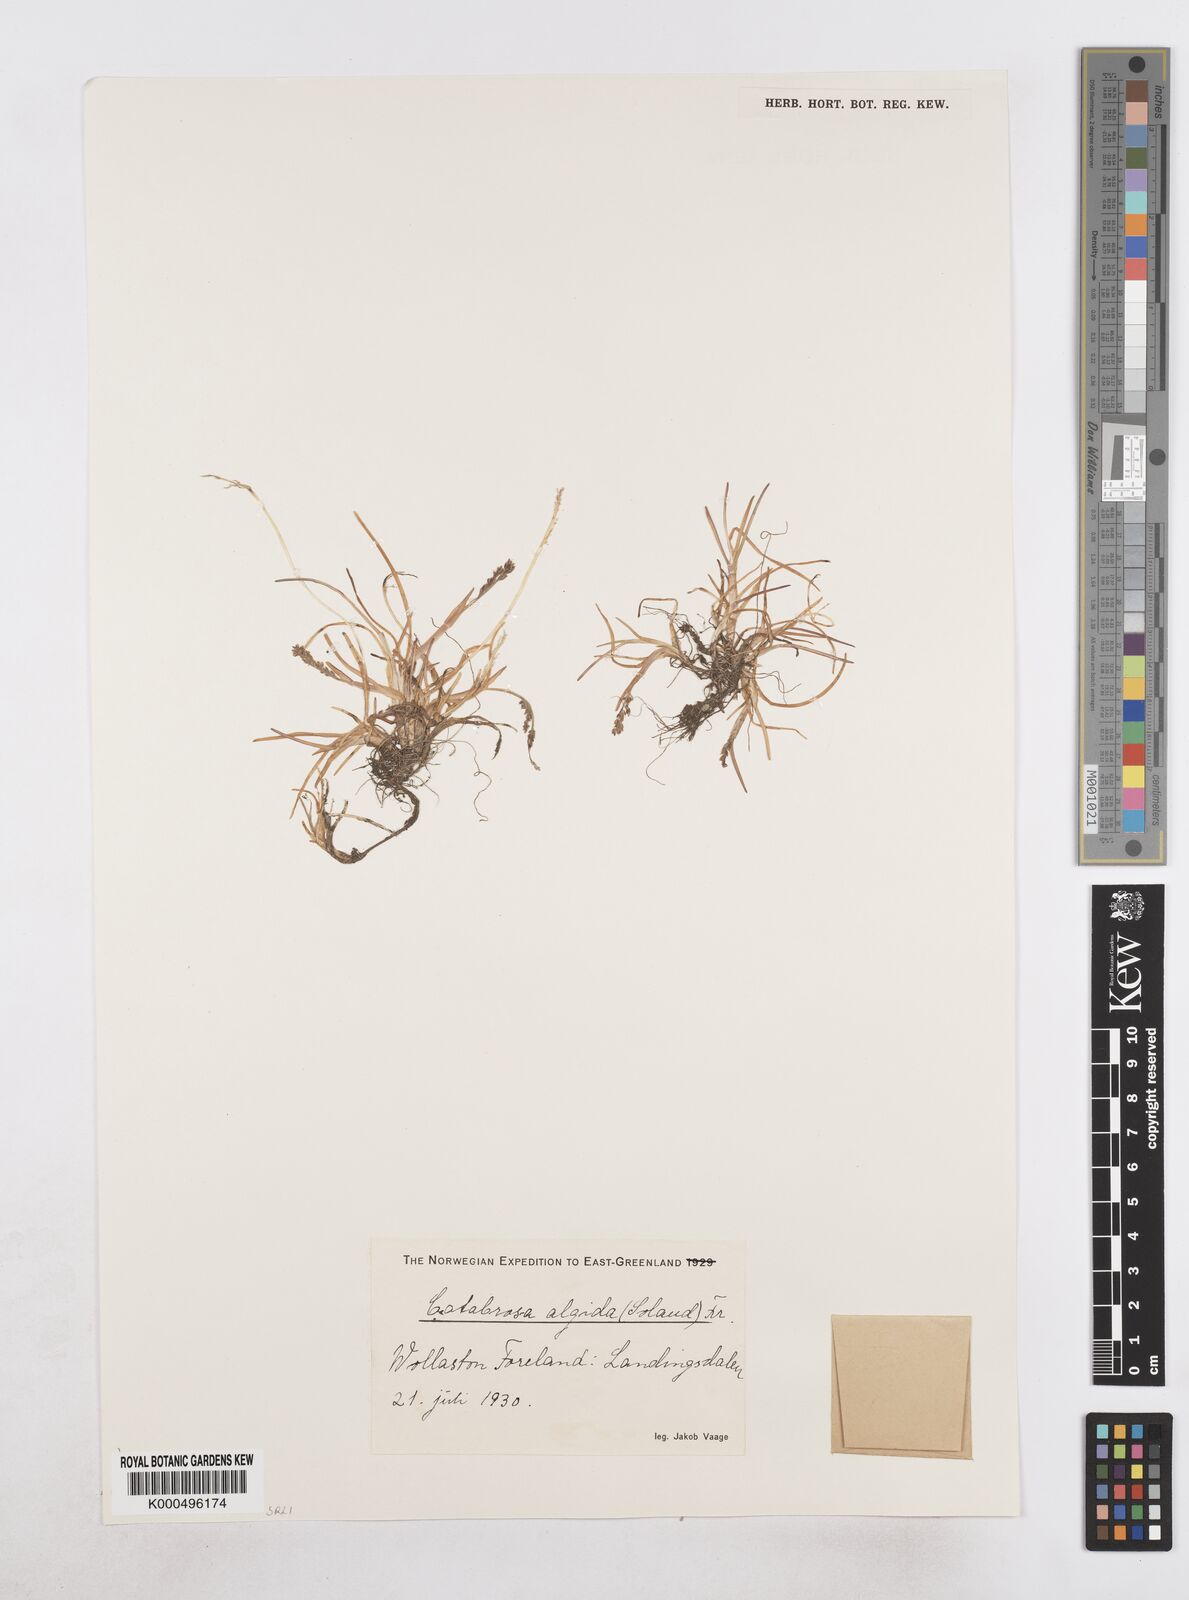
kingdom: Plantae
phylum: Tracheophyta
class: Liliopsida
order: Poales
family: Poaceae
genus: Phippsia
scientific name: Phippsia algida
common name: Ice grass
